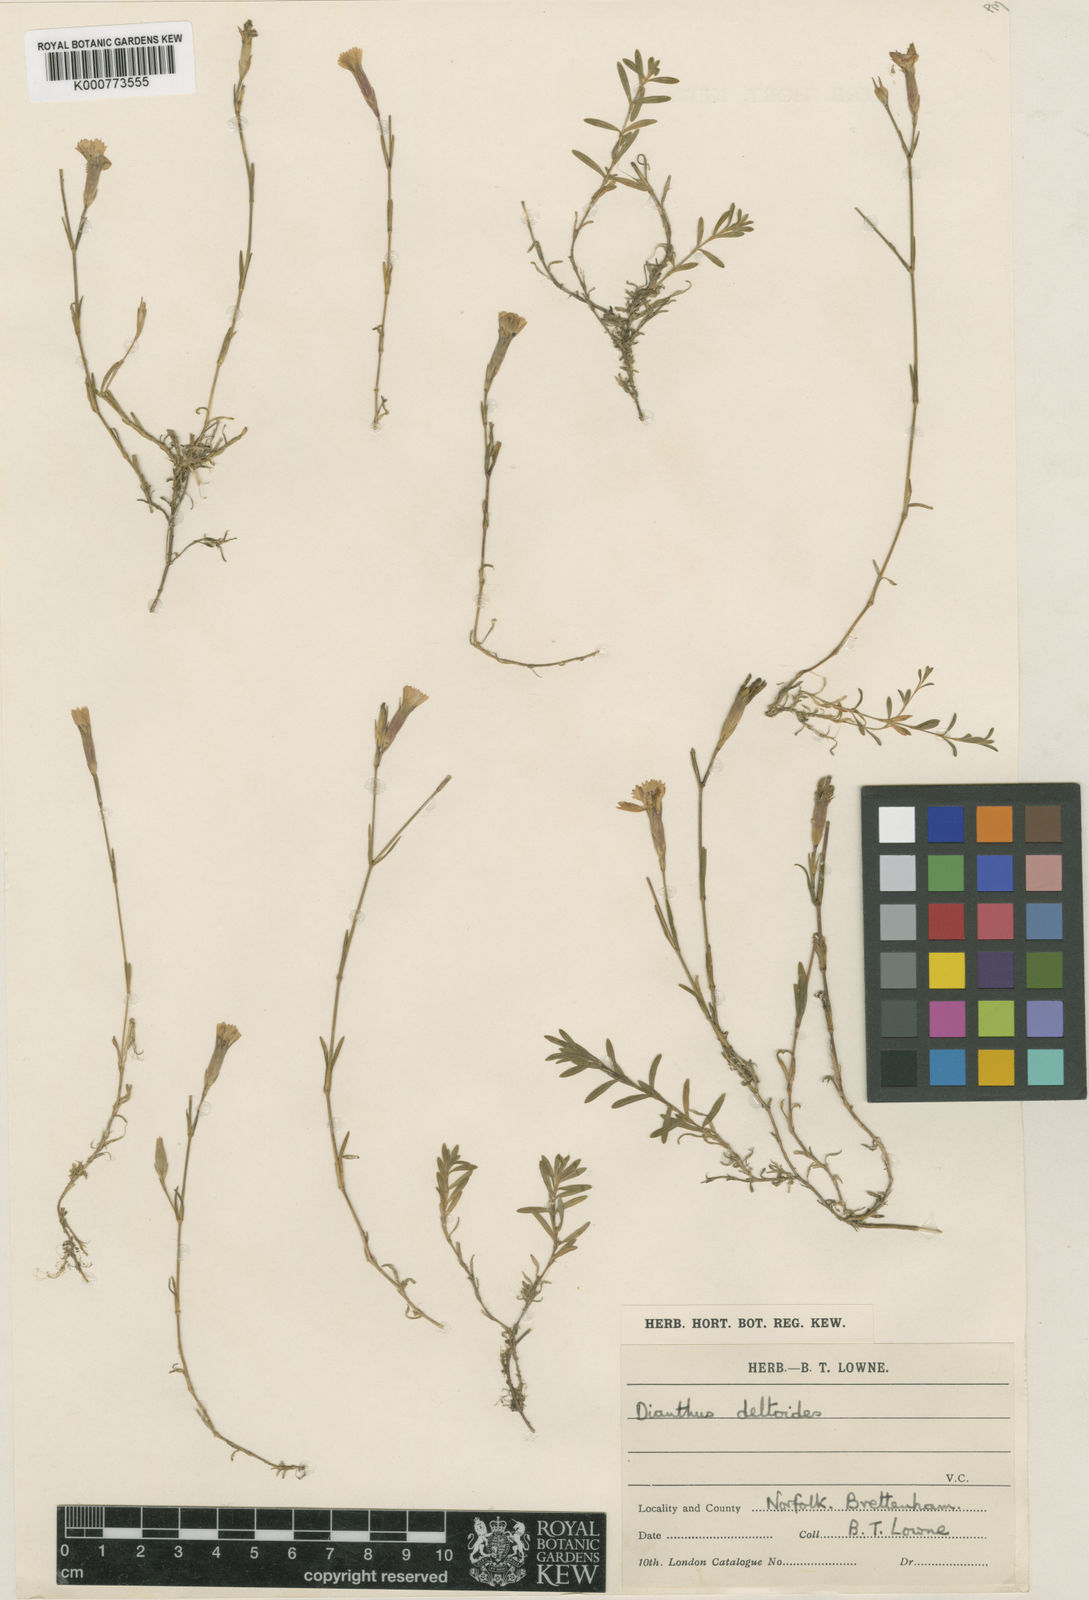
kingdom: Plantae
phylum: Tracheophyta
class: Magnoliopsida
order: Caryophyllales
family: Caryophyllaceae
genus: Dianthus
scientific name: Dianthus deltoides
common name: Maiden pink
